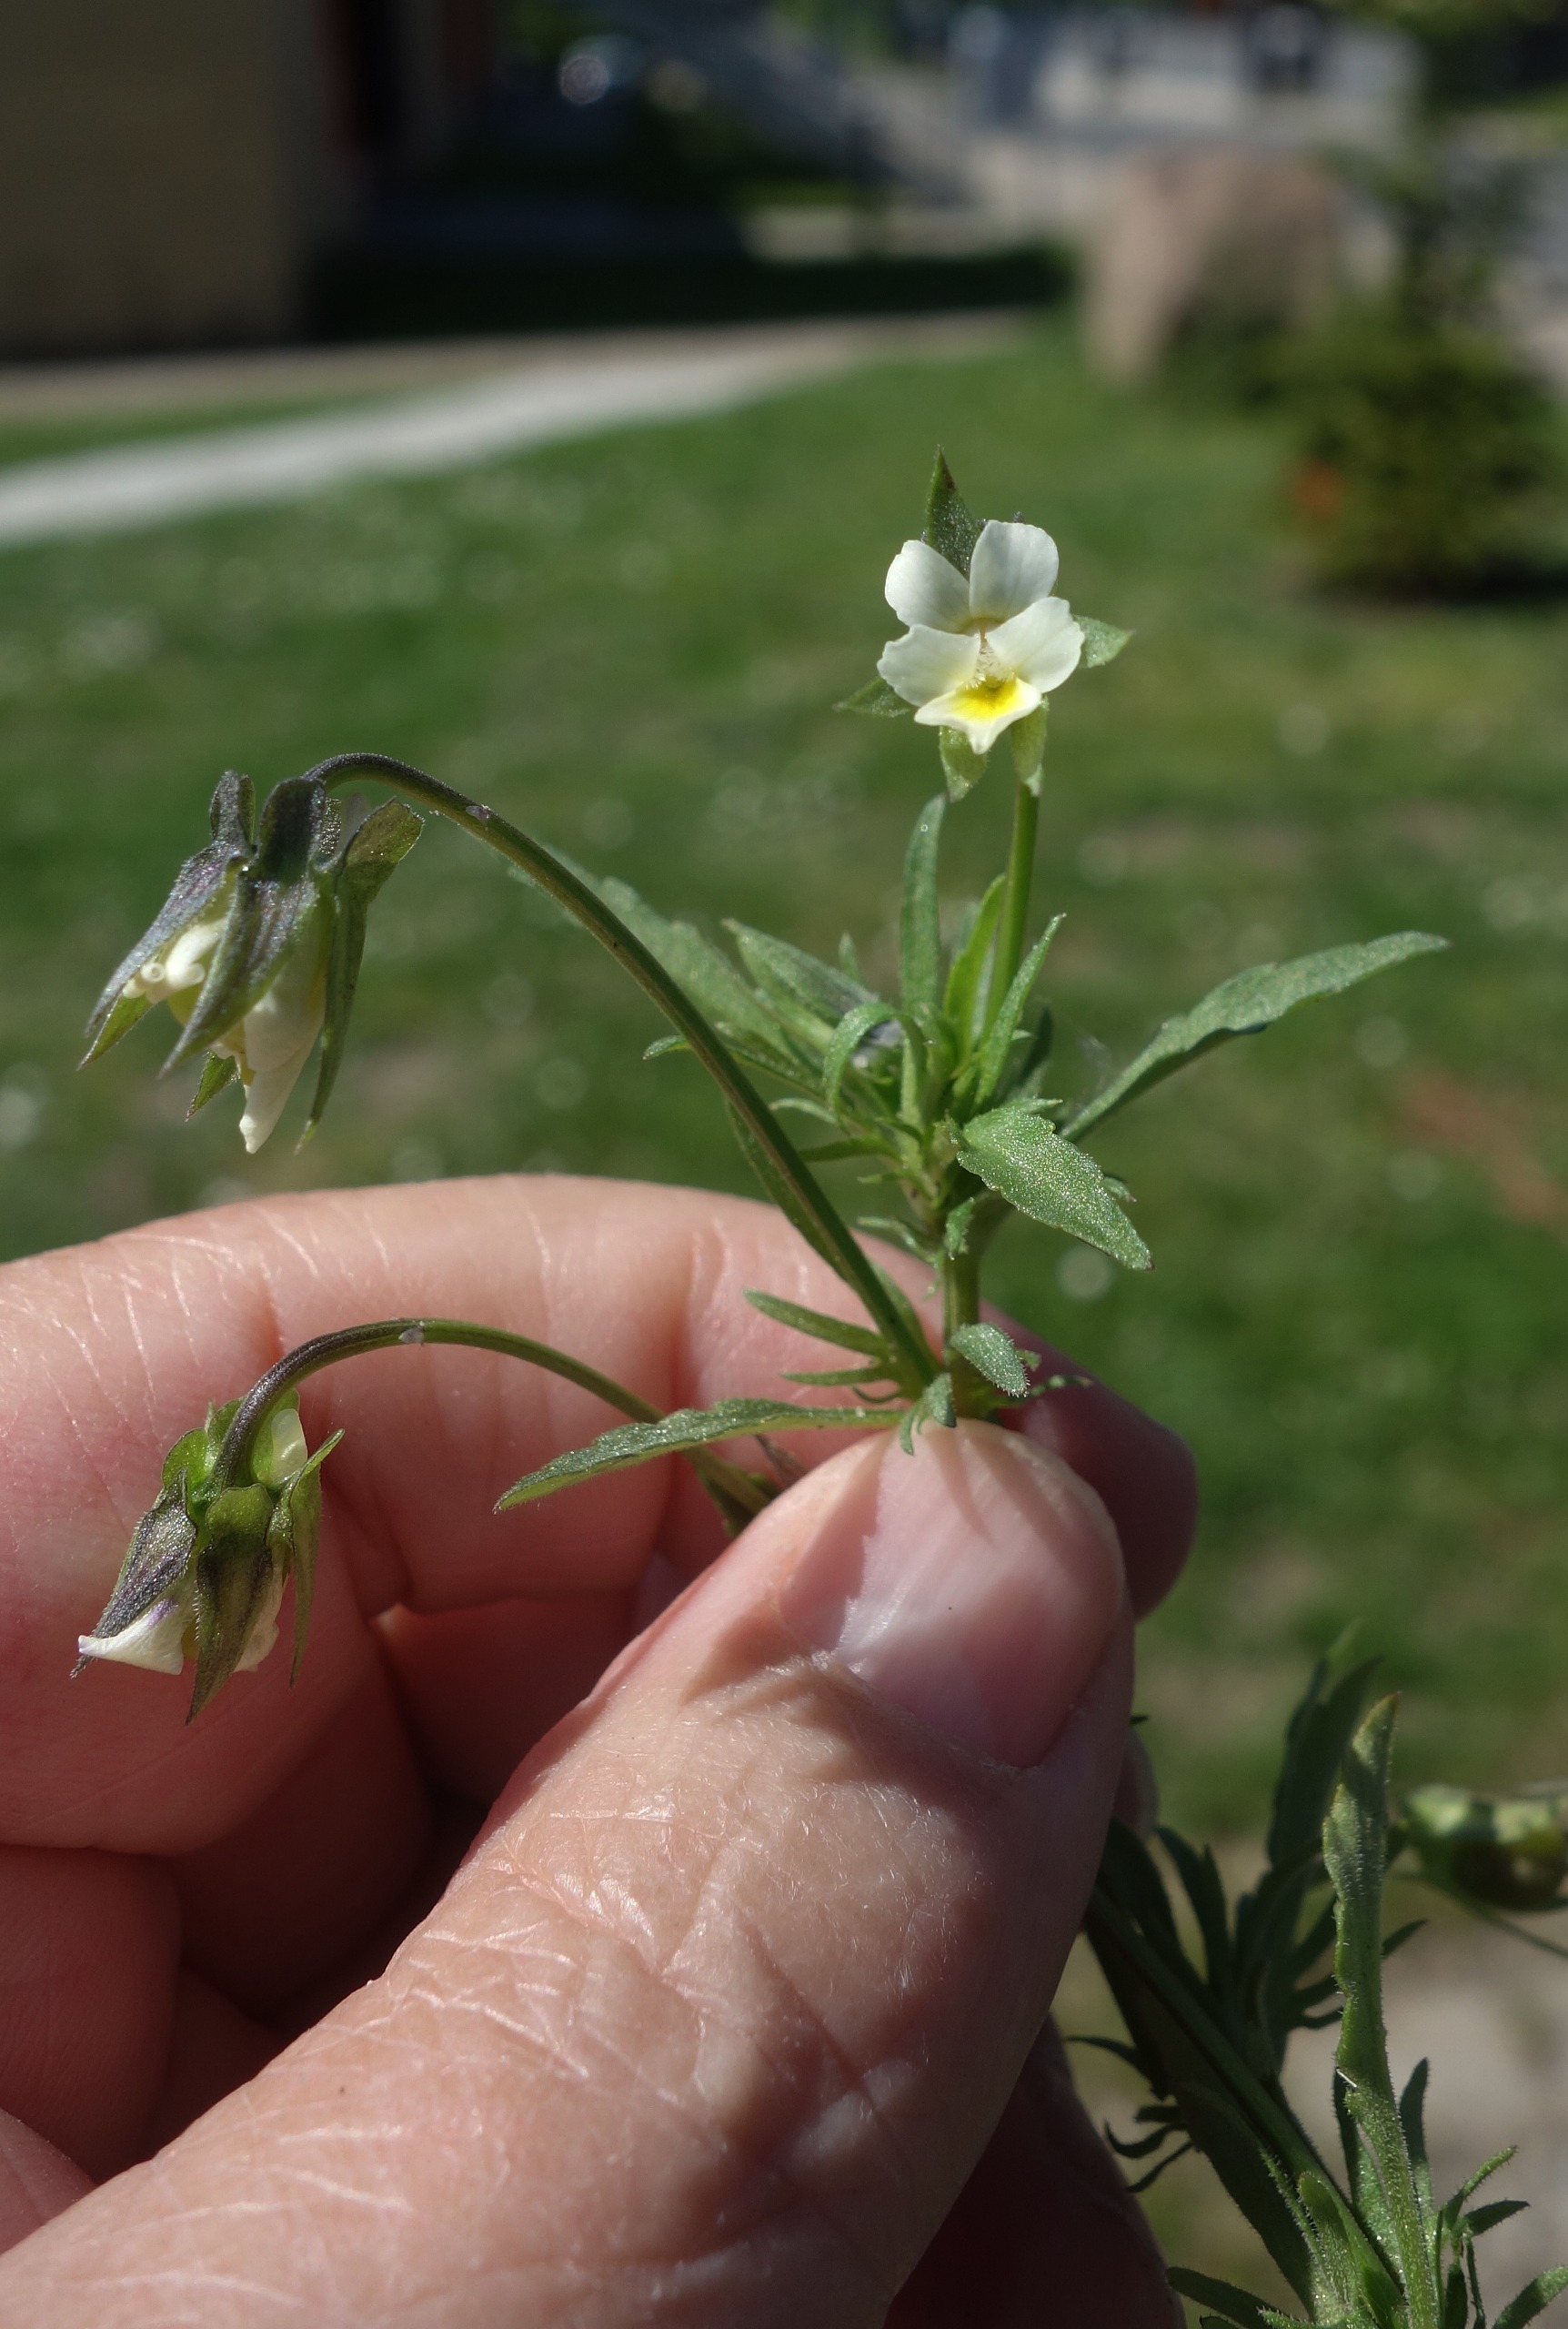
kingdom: Plantae
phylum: Tracheophyta
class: Magnoliopsida
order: Malpighiales
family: Violaceae
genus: Viola
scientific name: Viola arvensis
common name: Ager-stedmoderblomst
